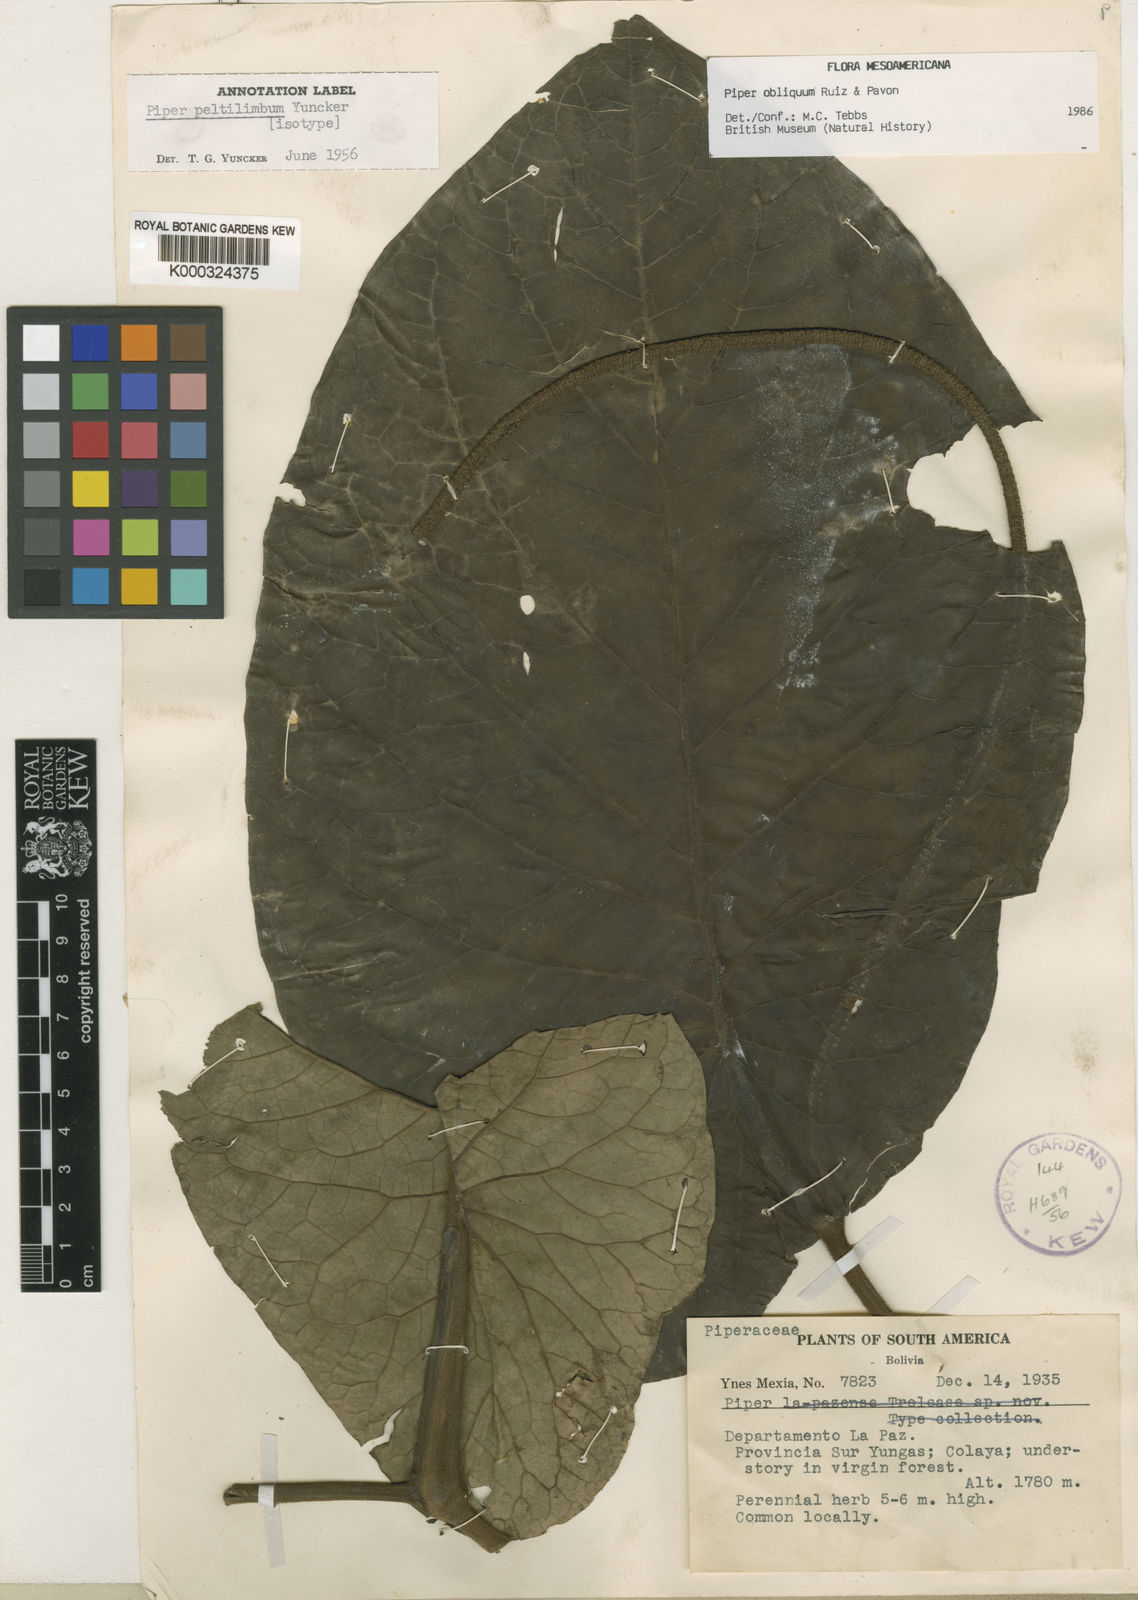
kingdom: Plantae
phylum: Tracheophyta
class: Magnoliopsida
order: Piperales
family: Piperaceae
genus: Piper
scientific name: Piper obliquum
